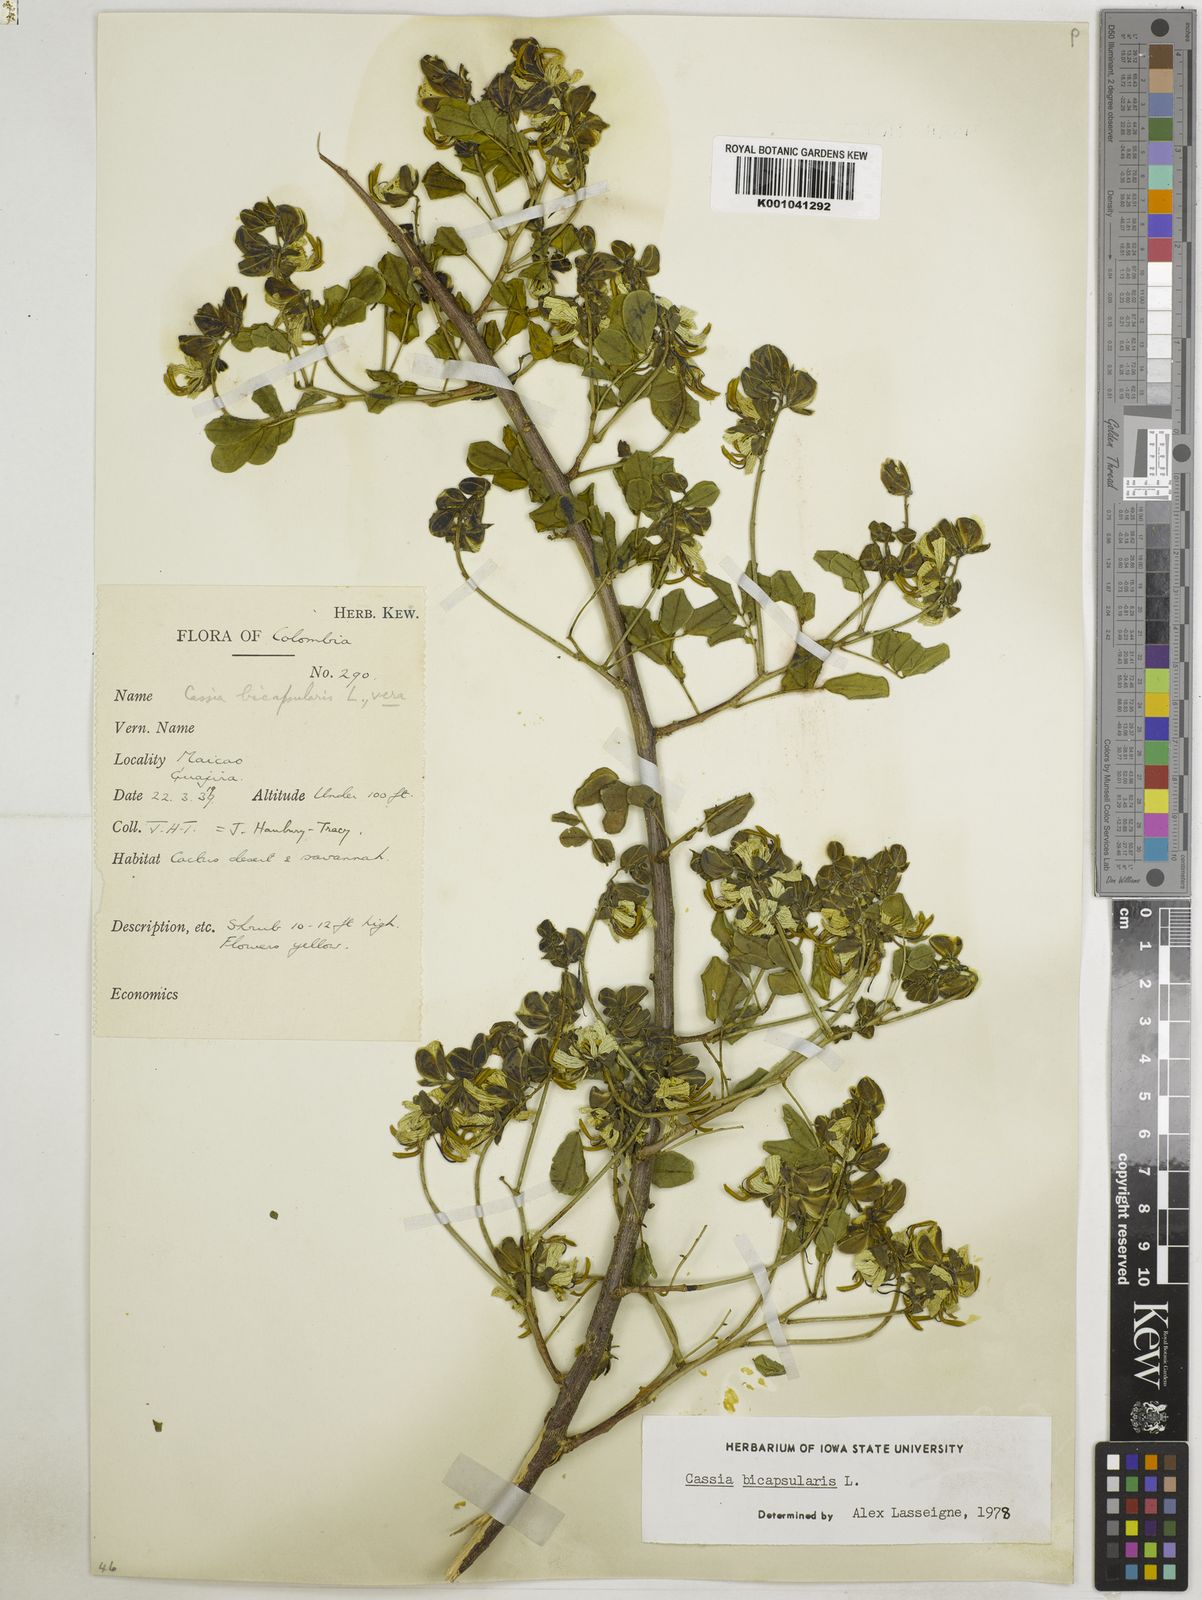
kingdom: Plantae
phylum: Tracheophyta
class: Magnoliopsida
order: Fabales
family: Fabaceae
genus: Senna
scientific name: Senna bicapsularis
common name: Christmasbush
